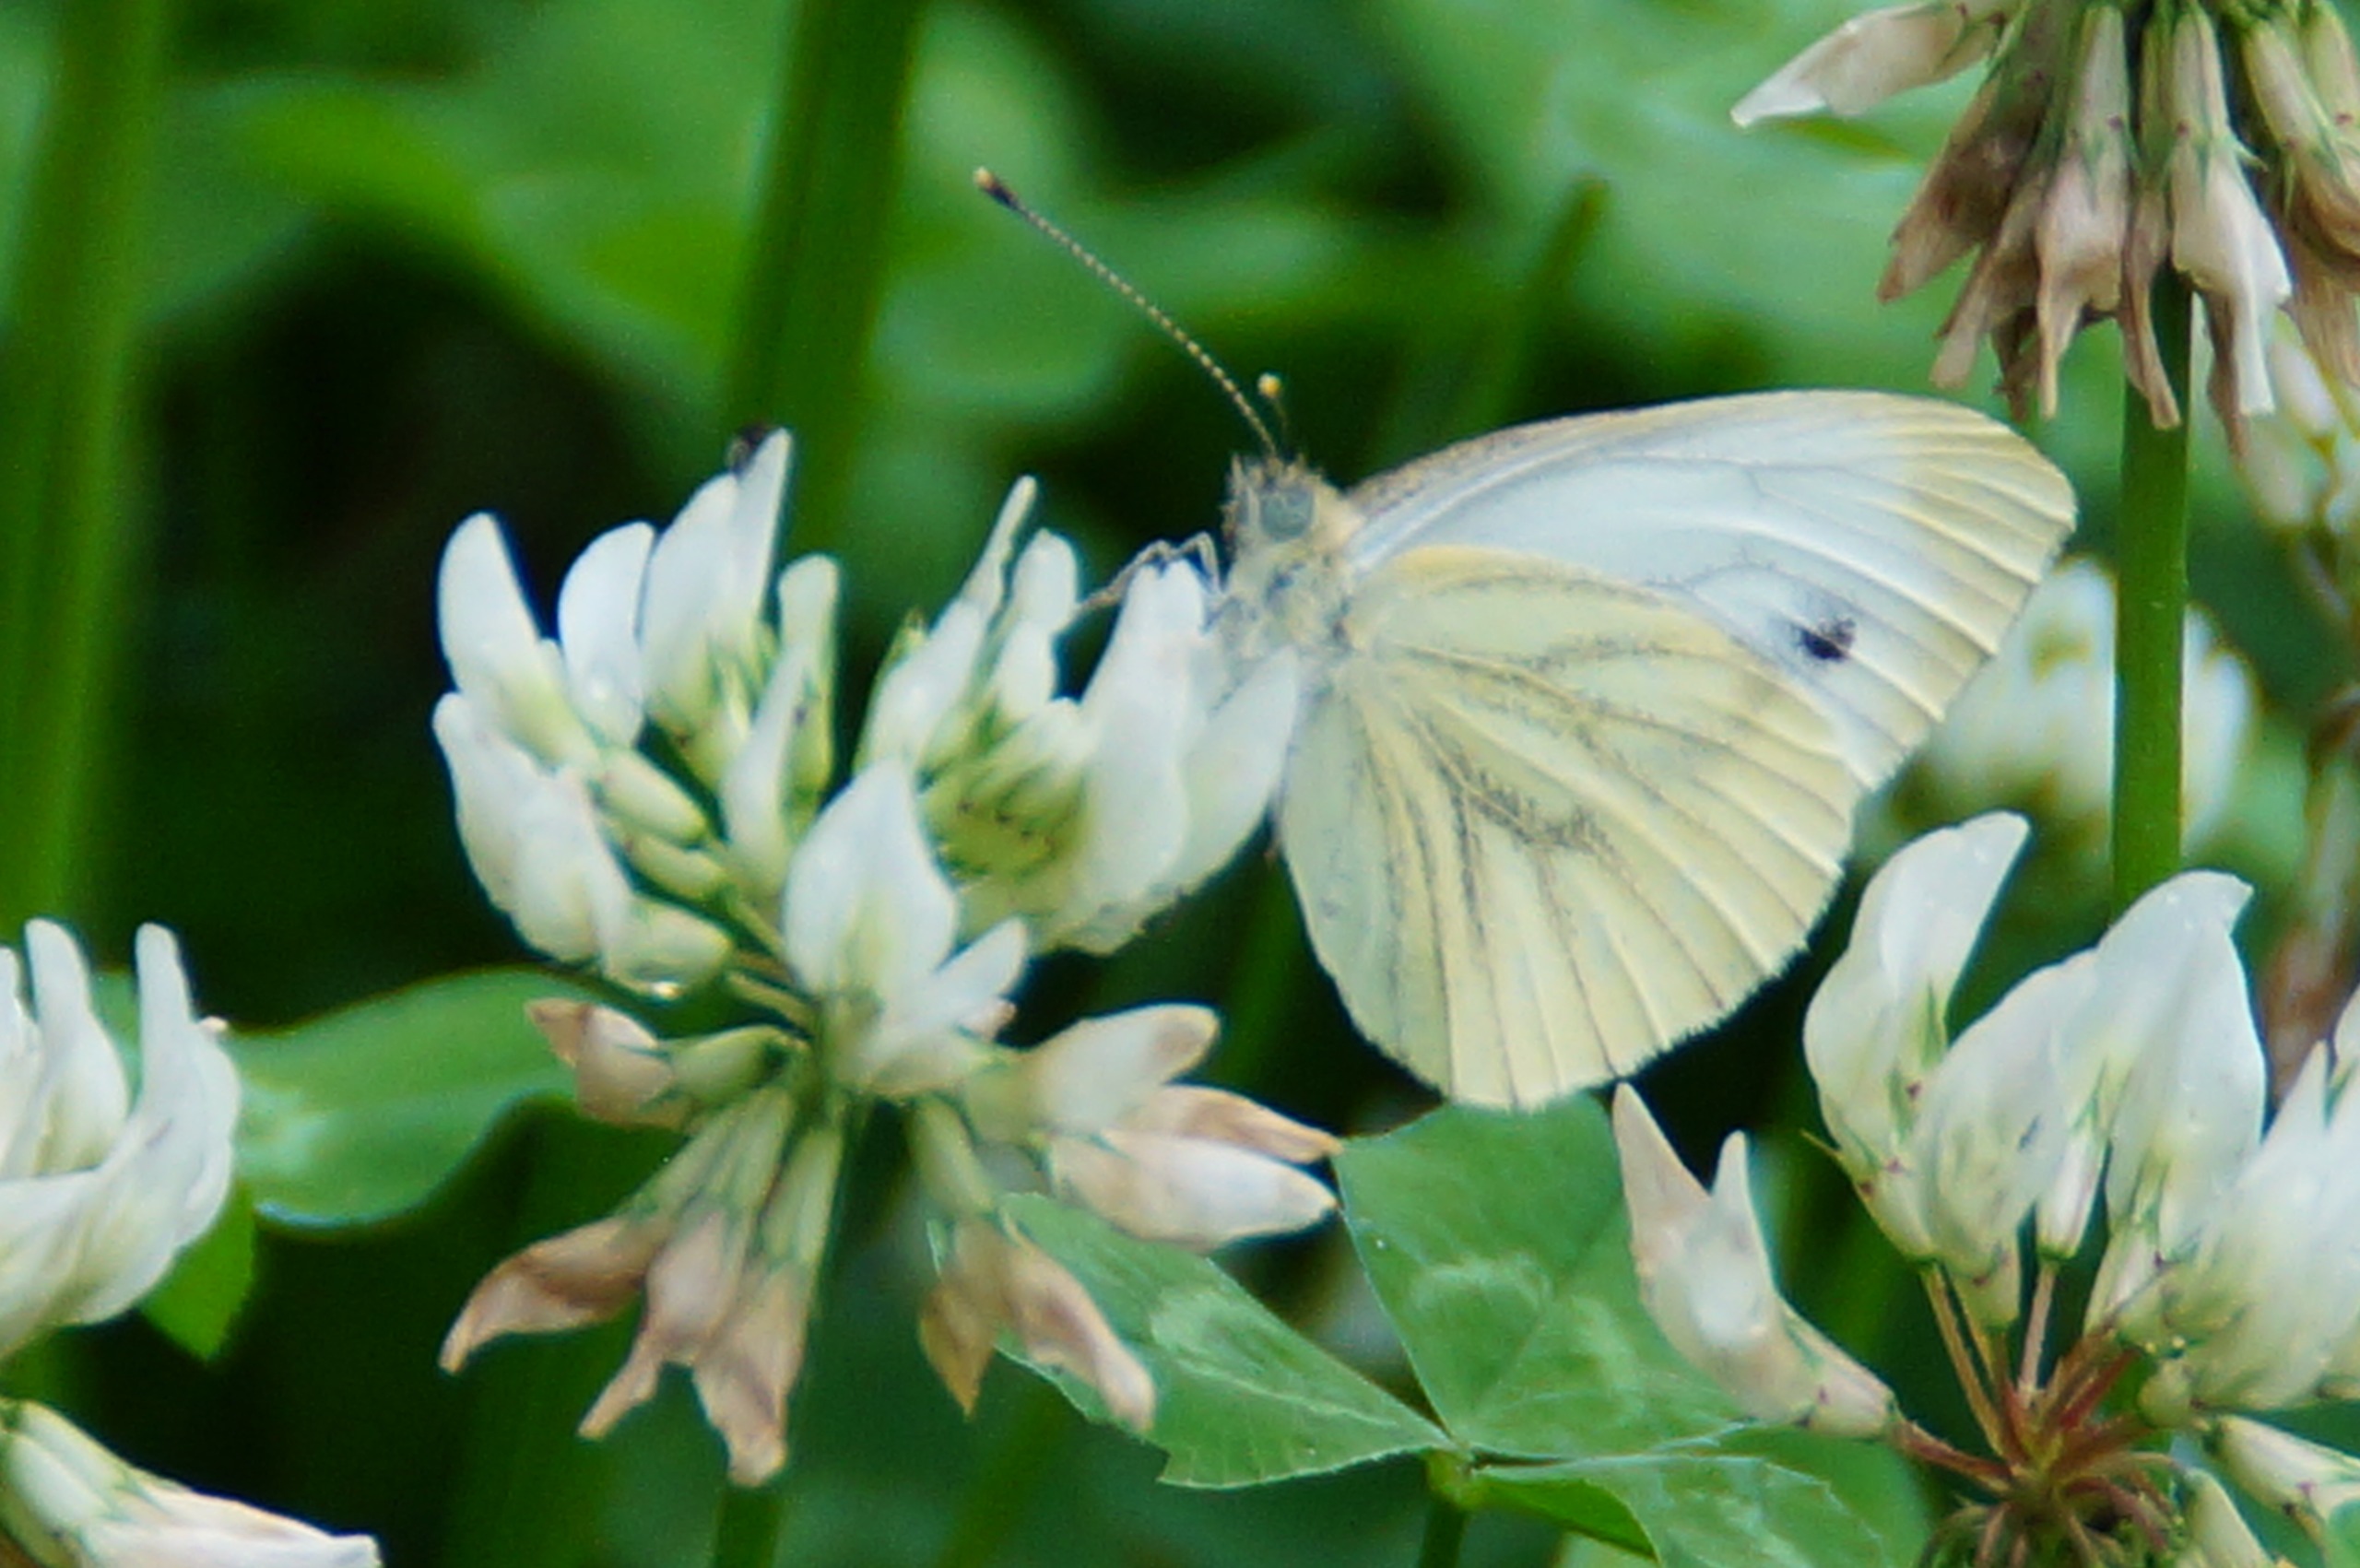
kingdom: Animalia
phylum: Arthropoda
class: Insecta
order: Lepidoptera
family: Pieridae
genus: Pieris
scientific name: Pieris napi
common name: Grønåret kålsommerfugl
